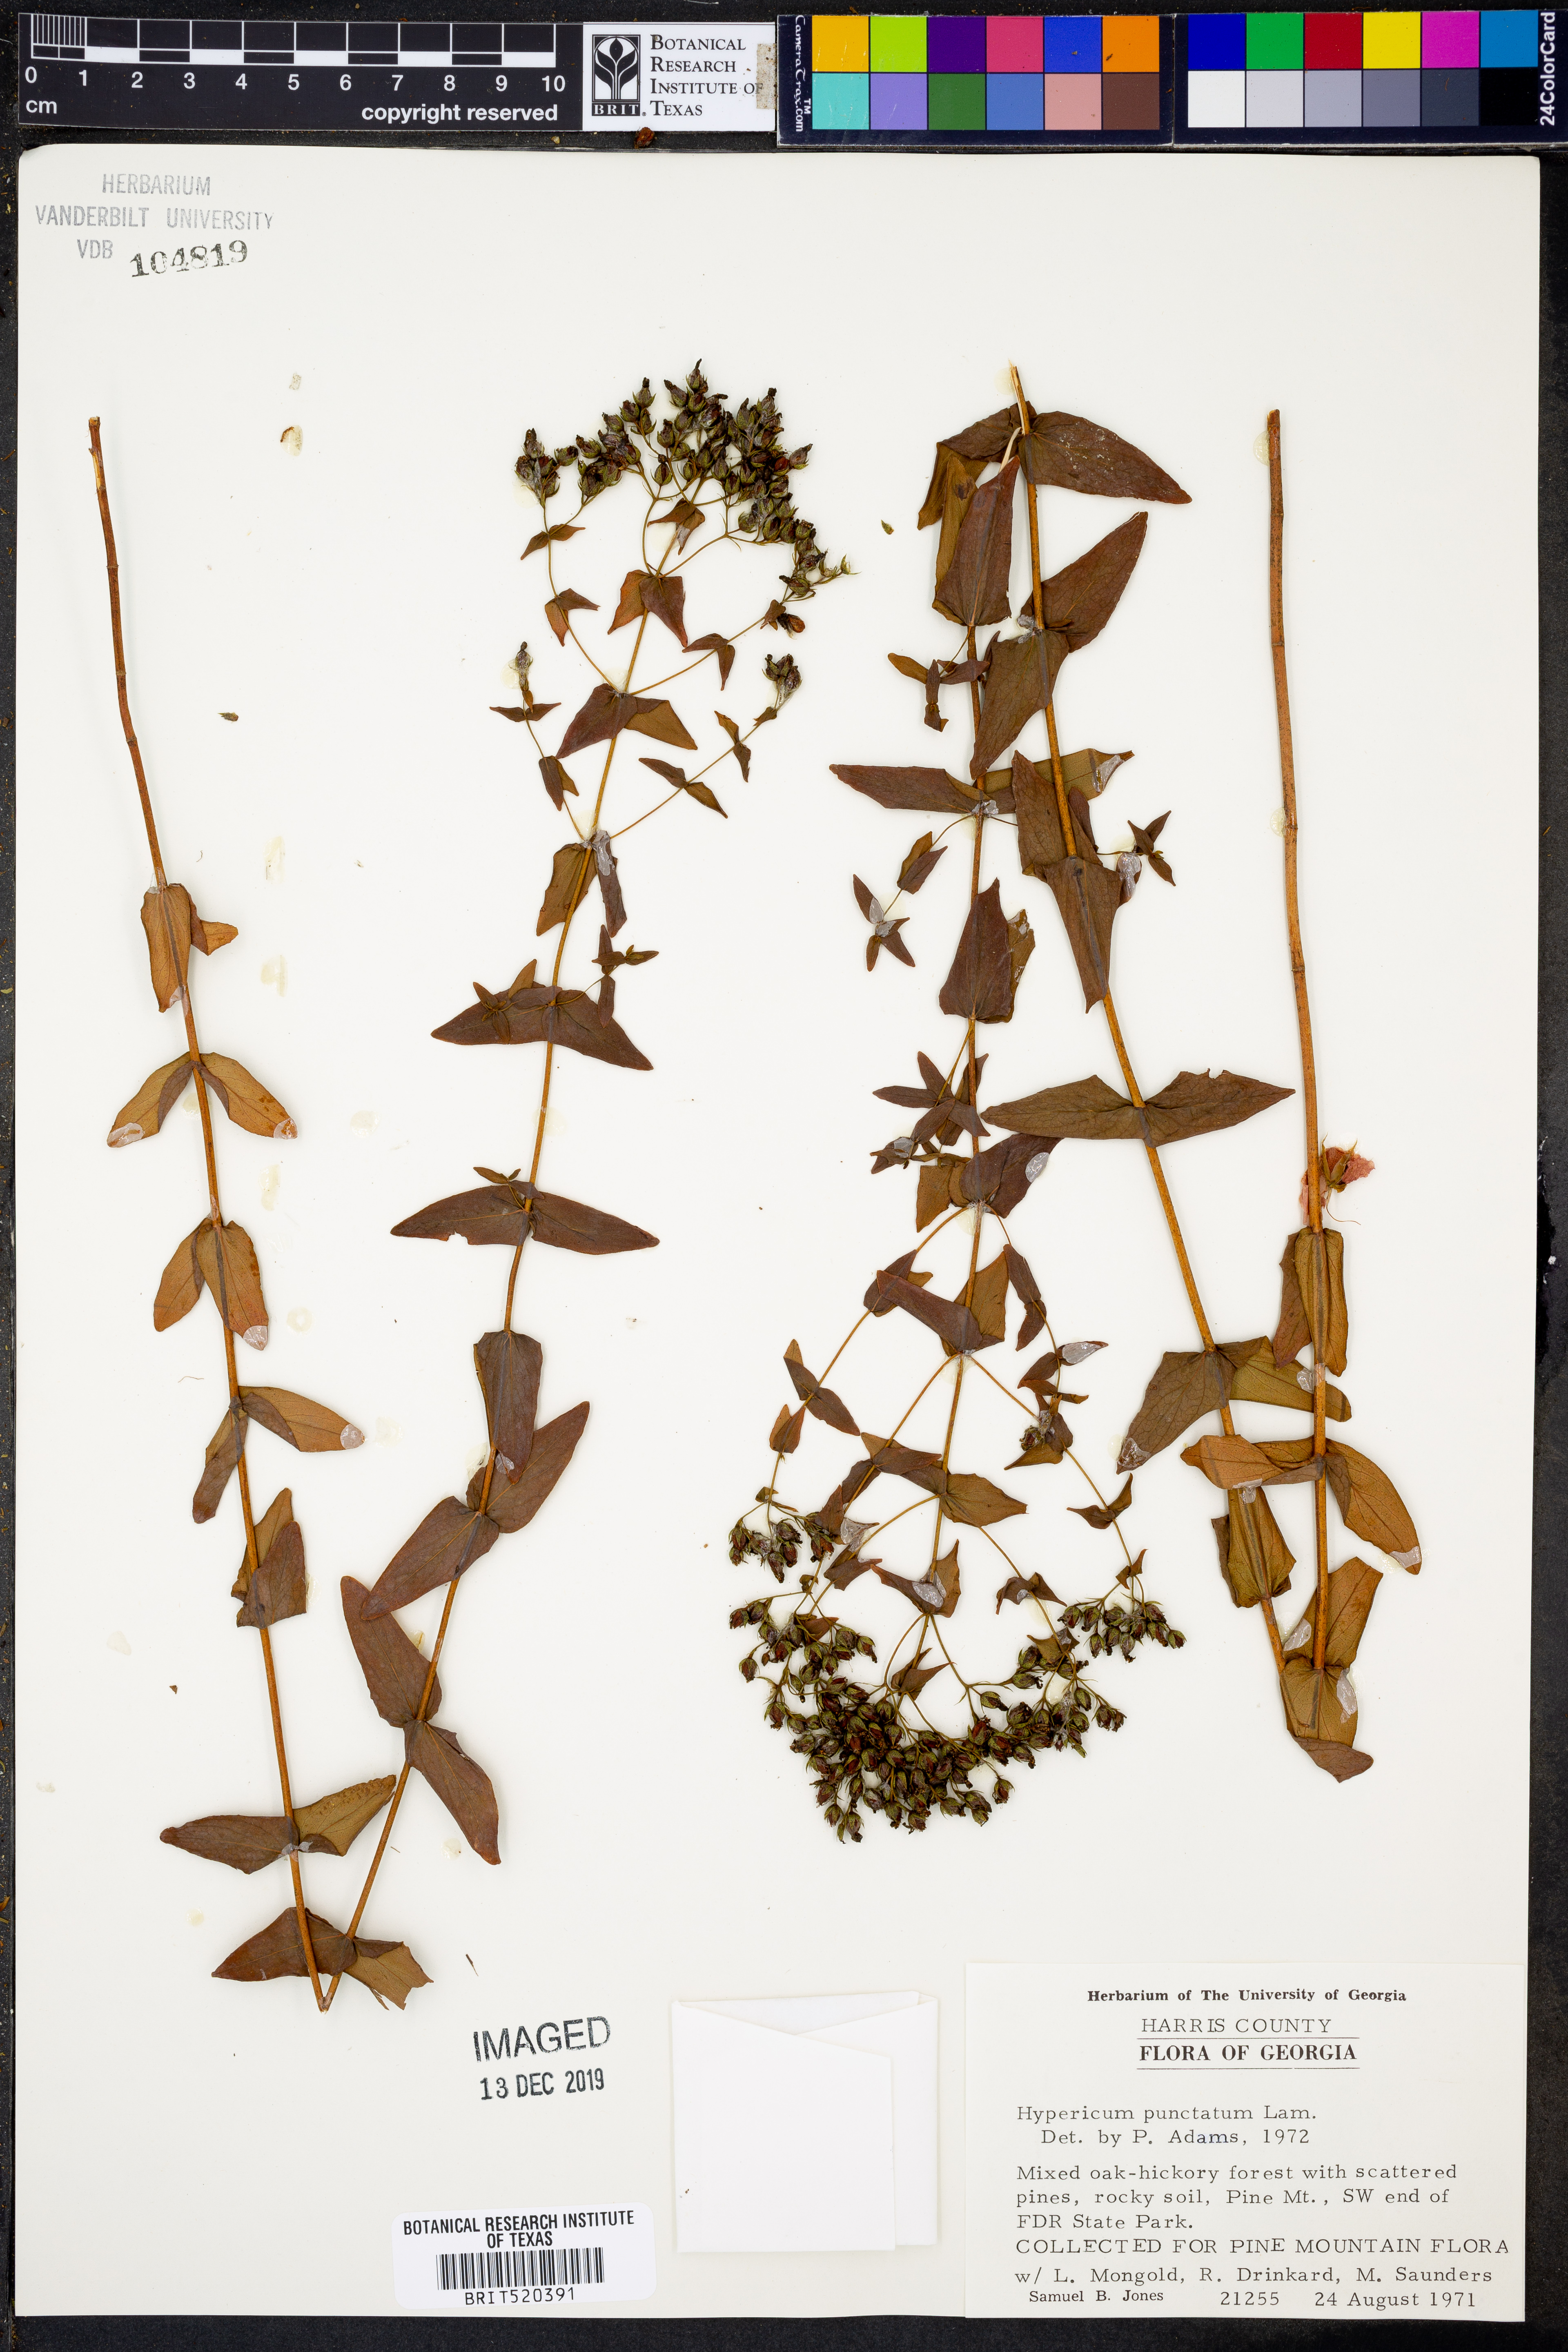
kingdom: Plantae
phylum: Tracheophyta
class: Magnoliopsida
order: Malpighiales
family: Hypericaceae
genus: Hypericum
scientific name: Hypericum punctatum
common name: Spotted st. john's-wort
